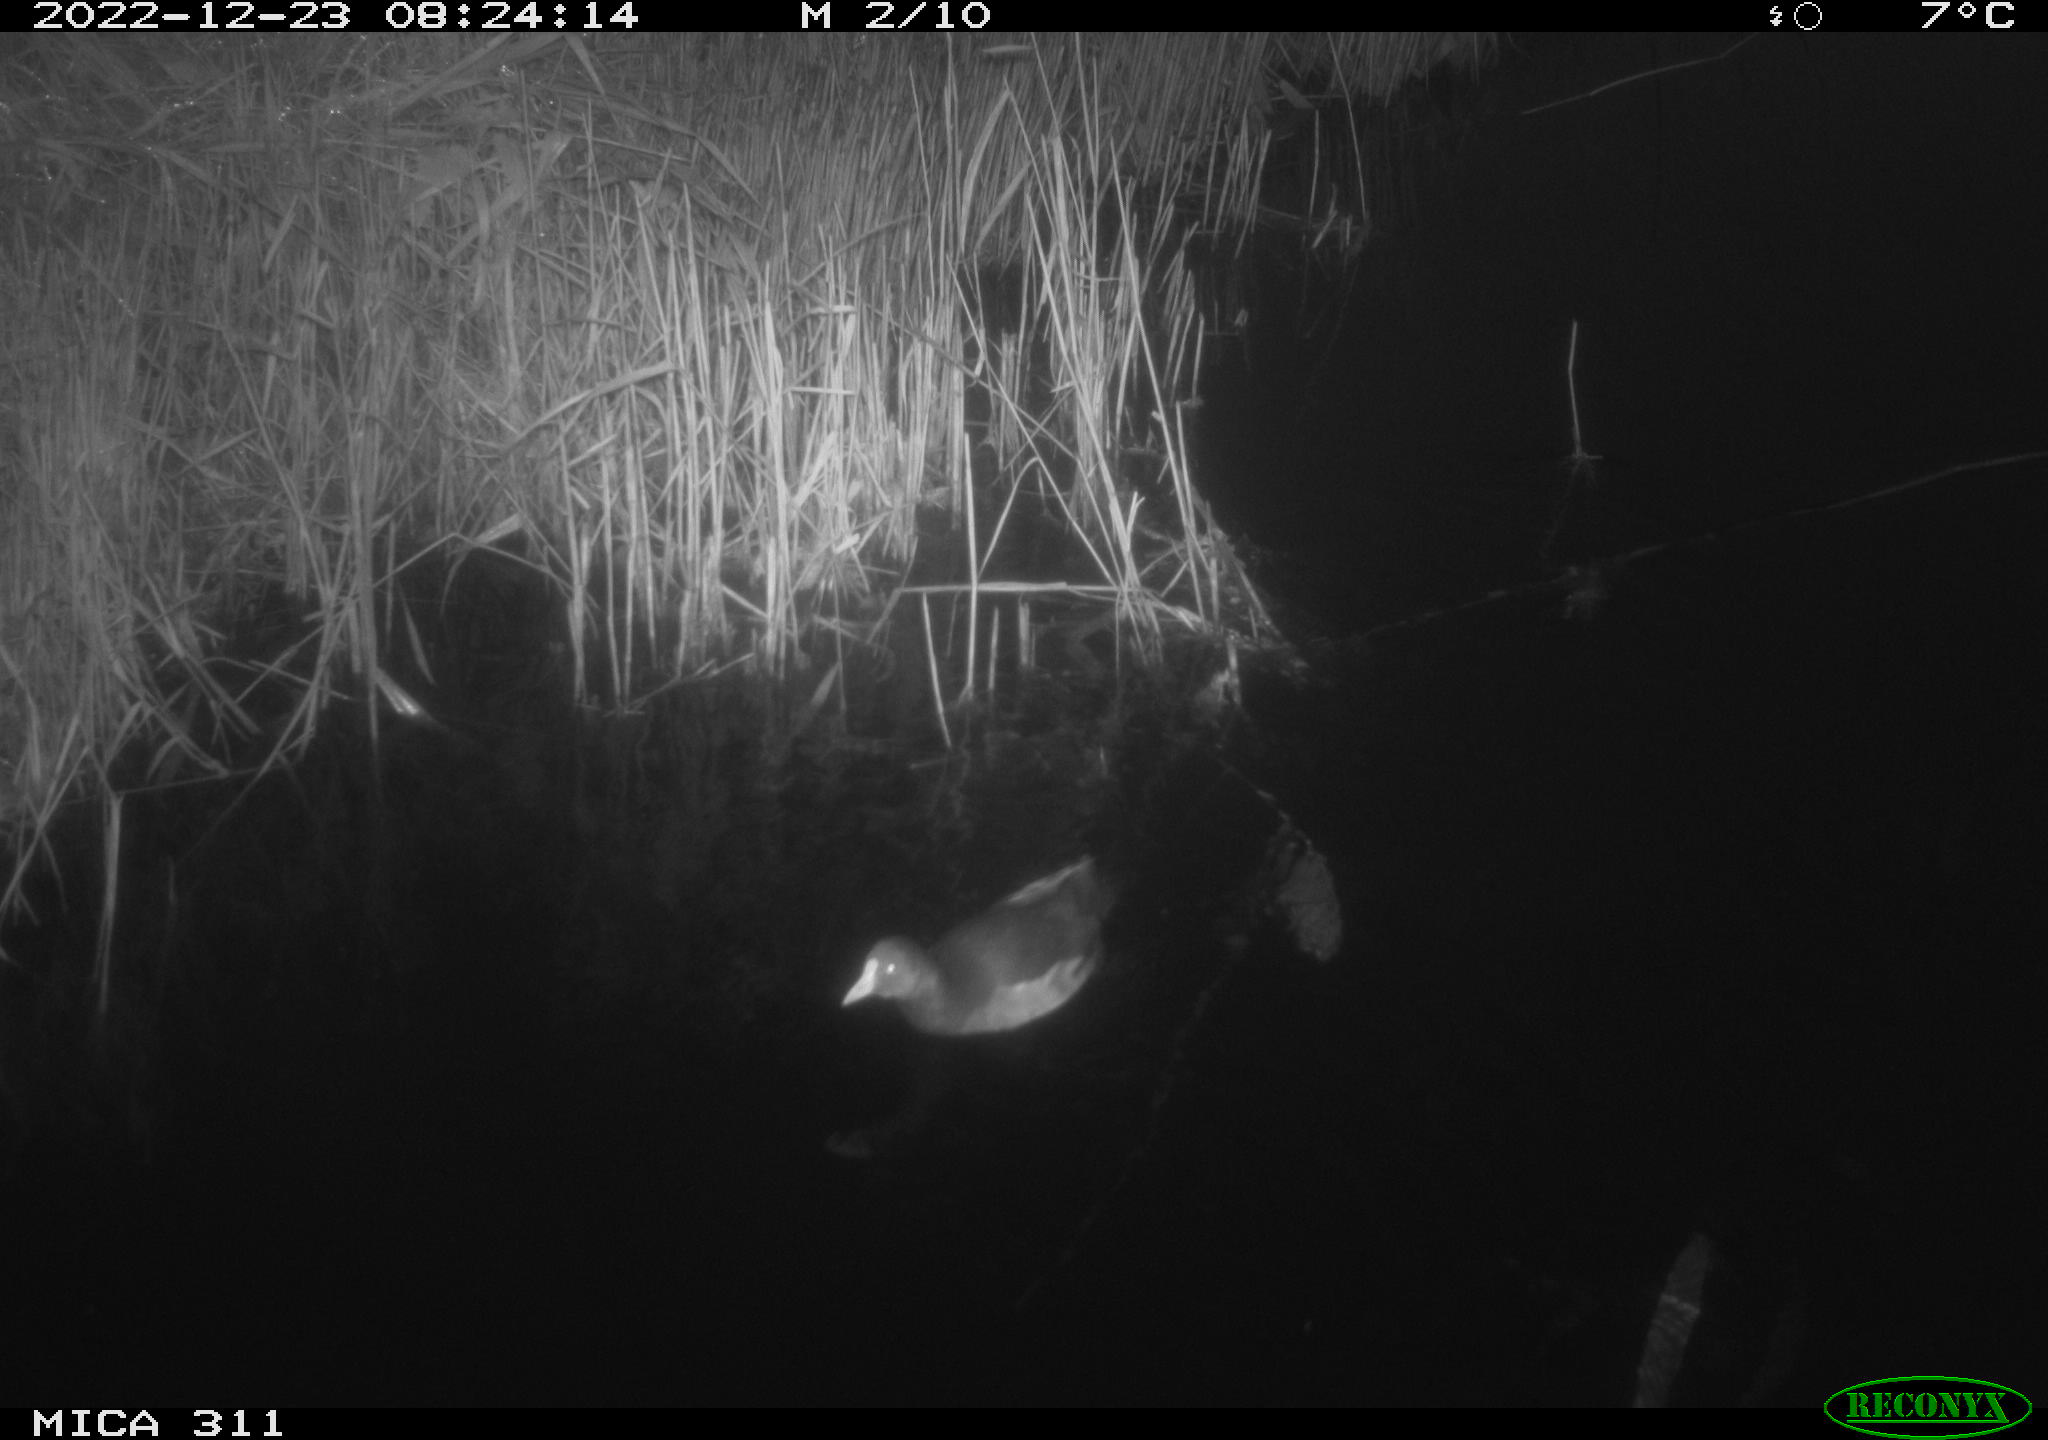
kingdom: Animalia
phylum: Chordata
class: Aves
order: Gruiformes
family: Rallidae
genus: Gallinula
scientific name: Gallinula chloropus
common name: Common moorhen
